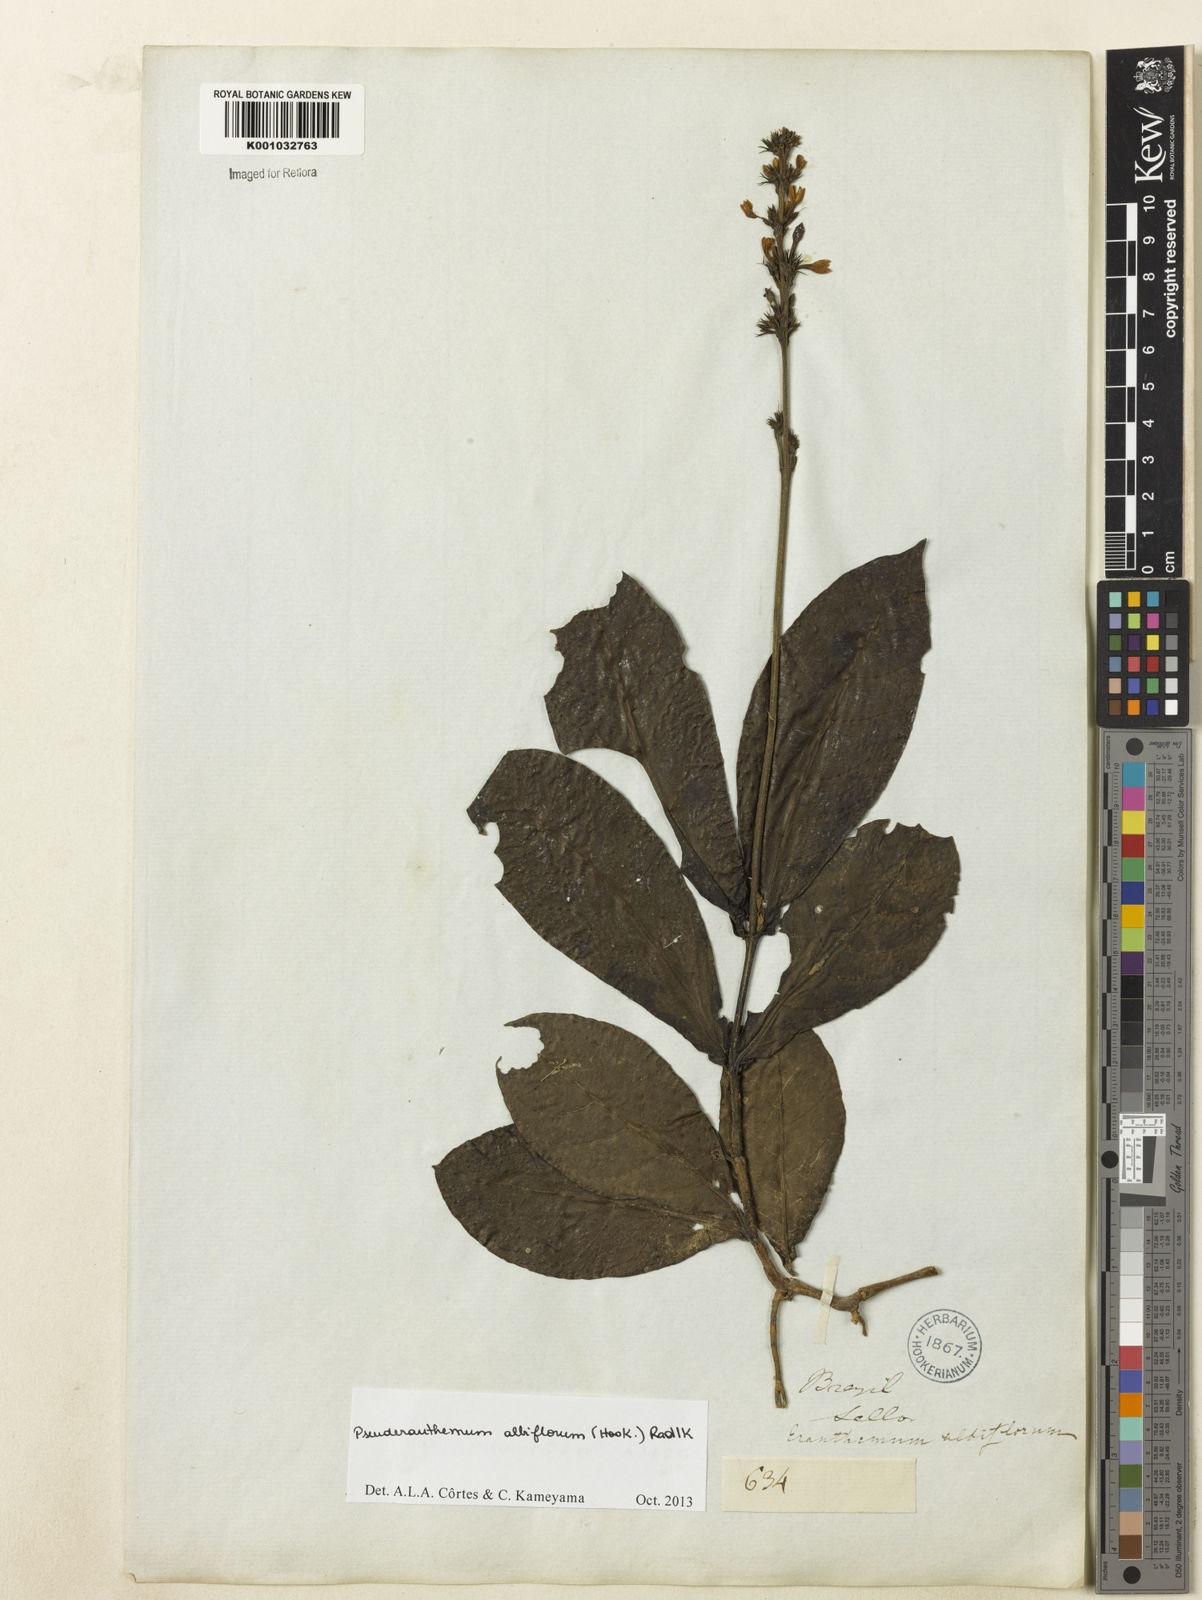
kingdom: Plantae
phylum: Tracheophyta
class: Magnoliopsida
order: Lamiales
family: Acanthaceae
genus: Pseuderanthemum
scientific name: Pseuderanthemum albiflorum
